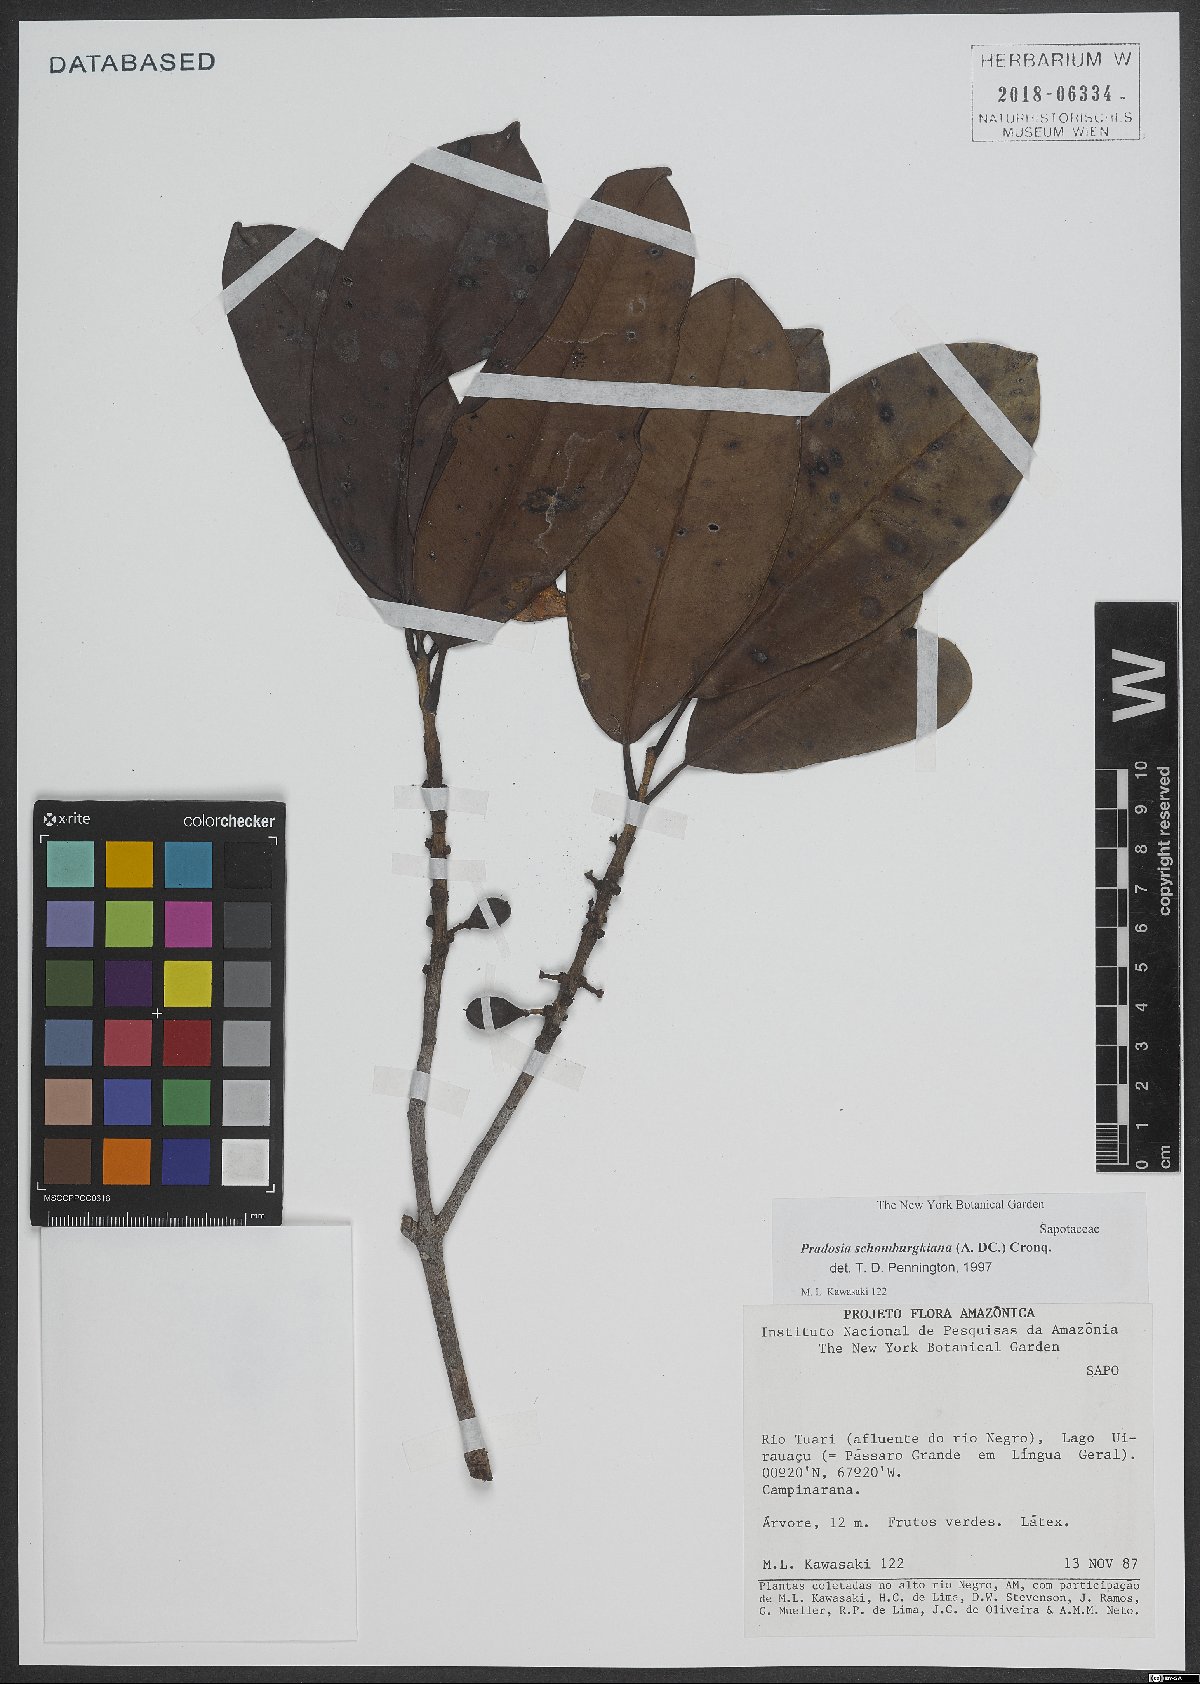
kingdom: Plantae
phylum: Tracheophyta
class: Magnoliopsida
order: Ericales
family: Sapotaceae
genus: Pradosia
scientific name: Pradosia schomburgkiana
